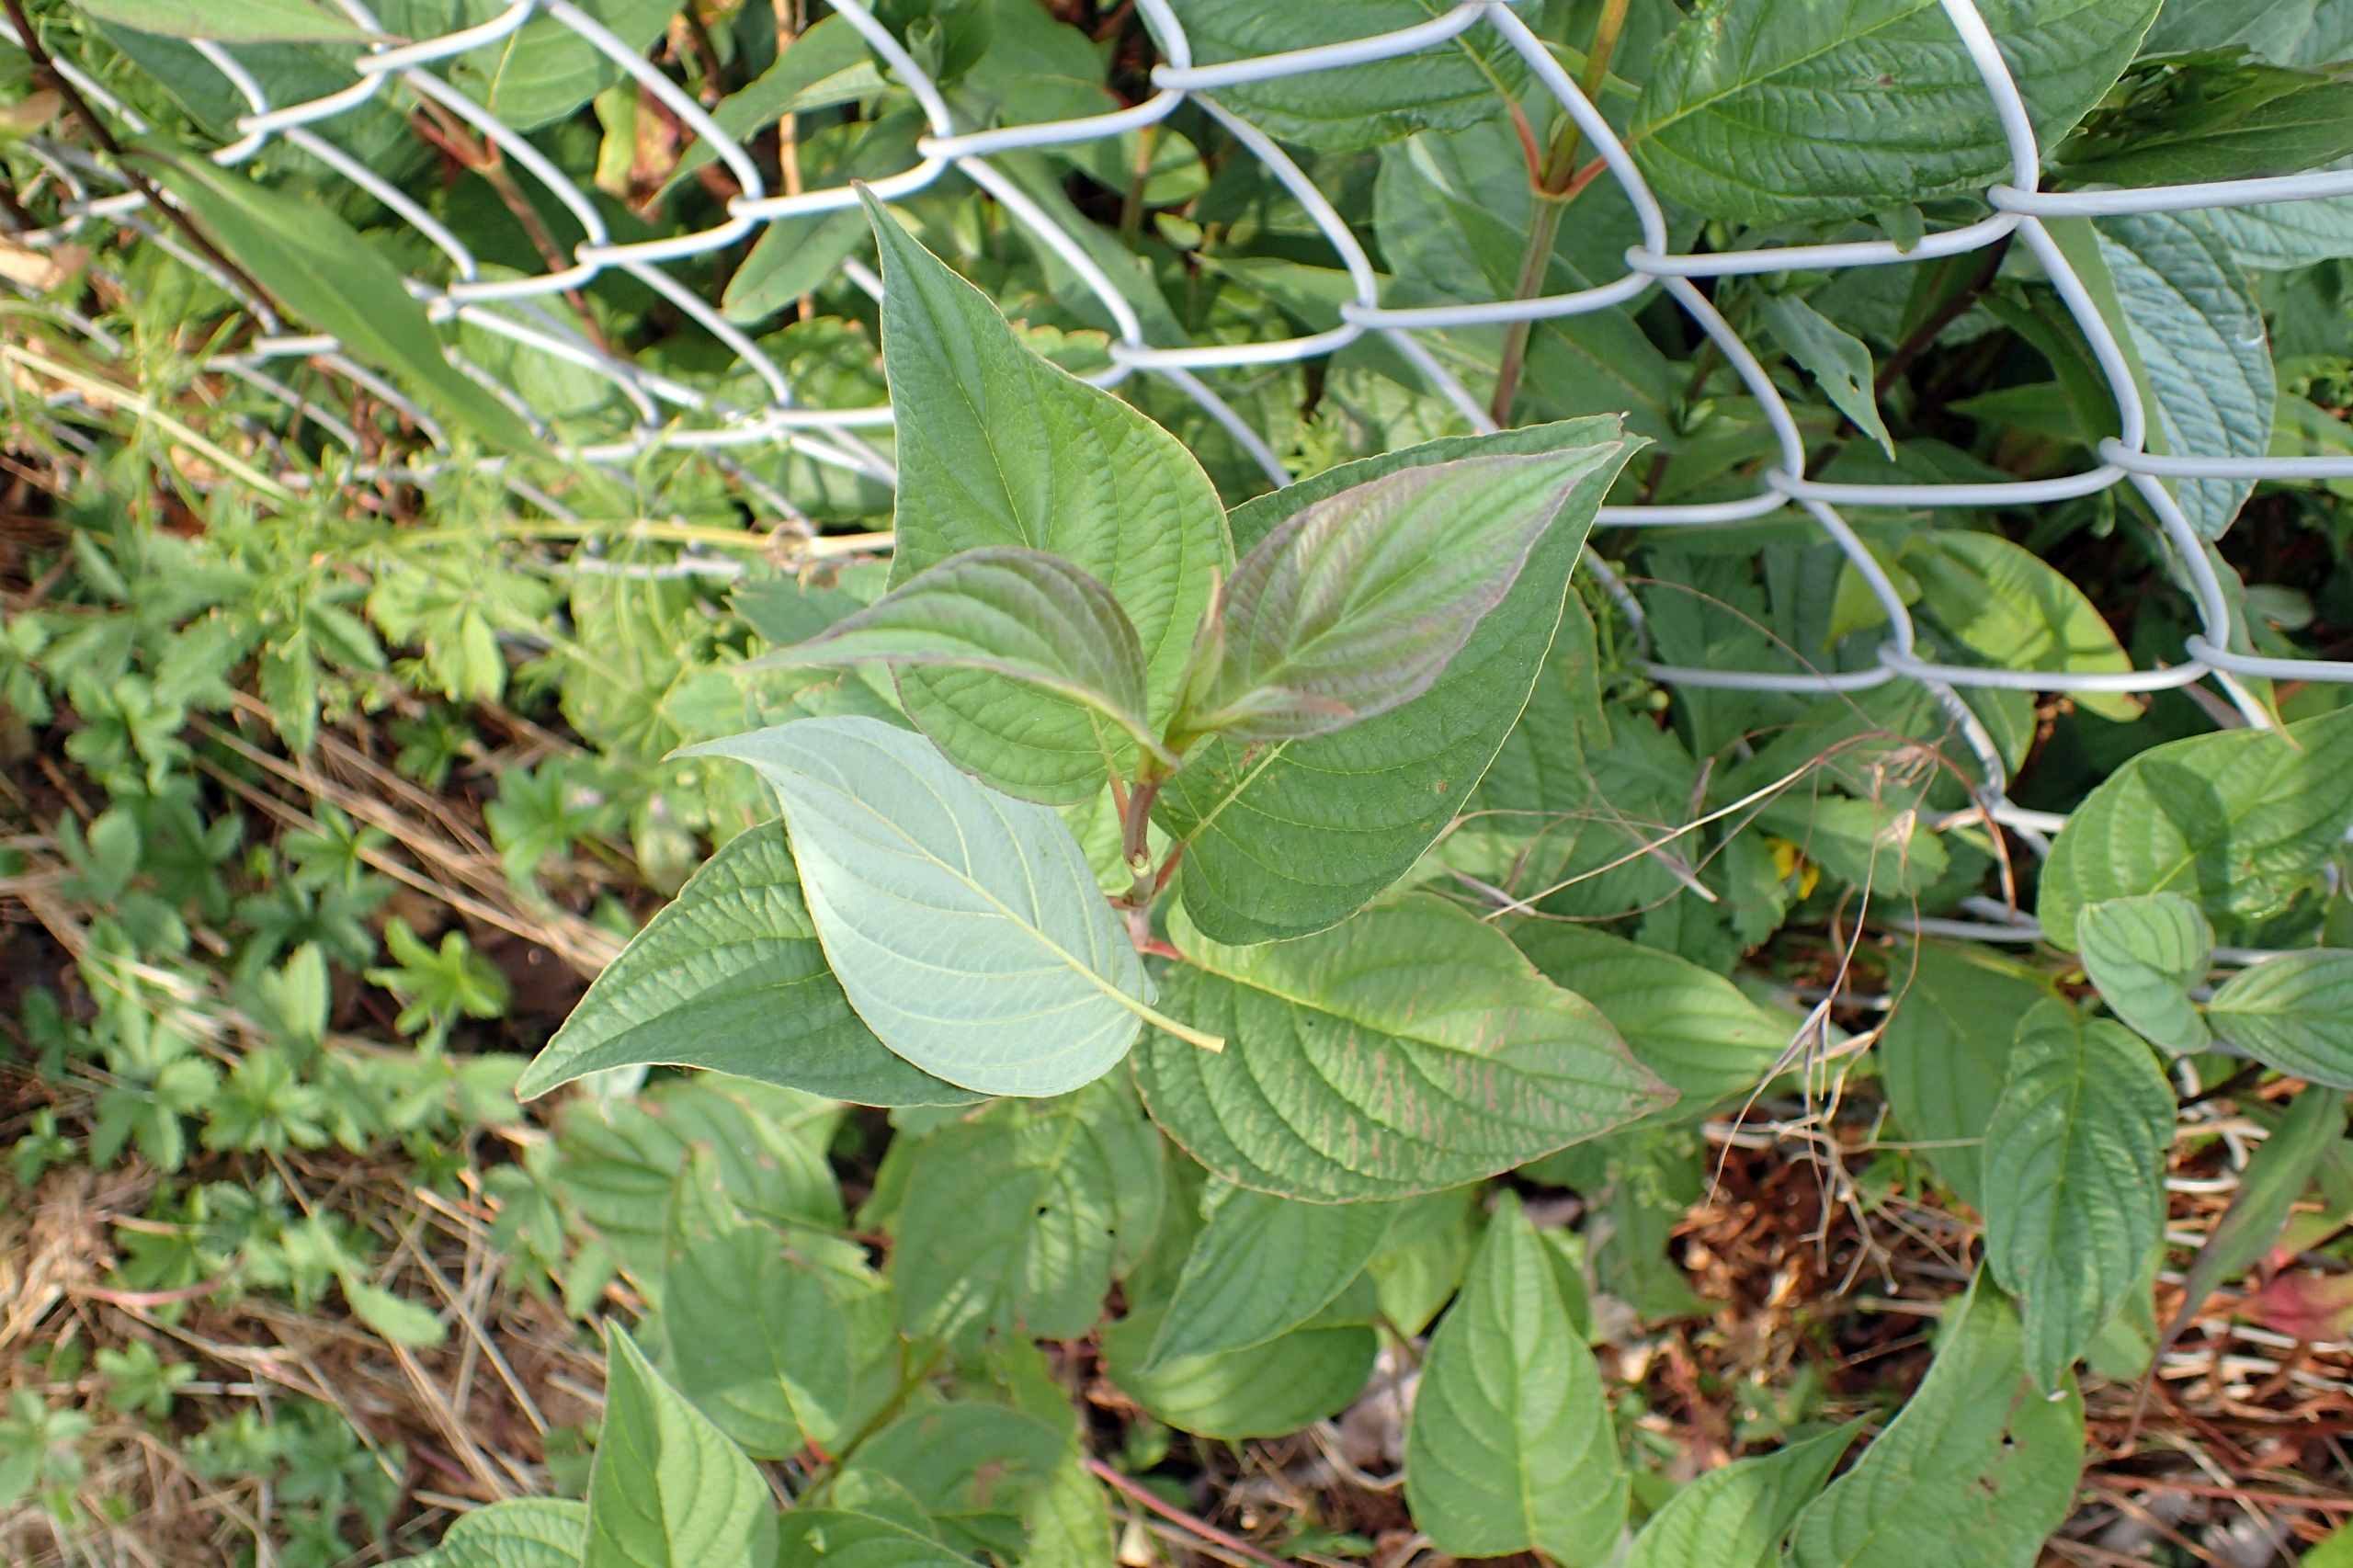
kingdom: Plantae
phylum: Tracheophyta
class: Magnoliopsida
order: Cornales
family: Cornaceae
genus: Cornus
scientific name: Cornus sericea
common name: Krybende kornel
